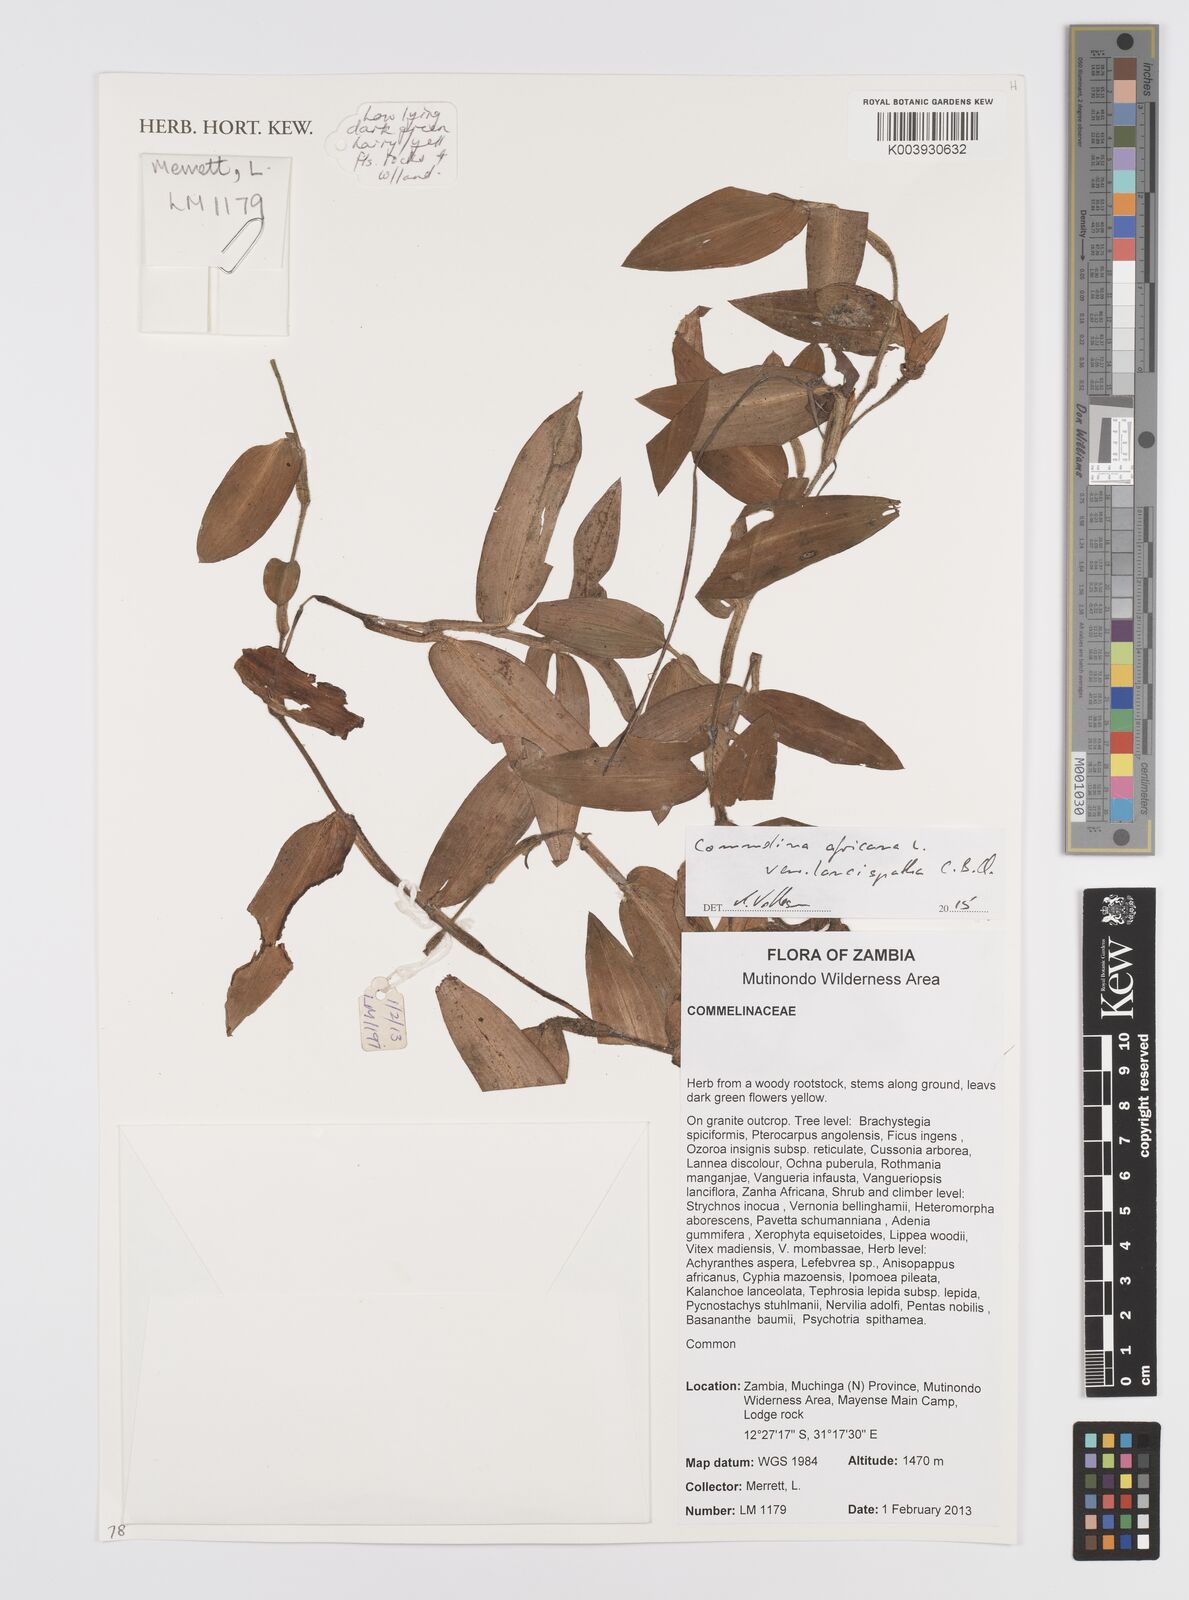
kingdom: Plantae
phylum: Tracheophyta
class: Liliopsida
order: Commelinales
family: Commelinaceae
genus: Commelina
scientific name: Commelina africana
